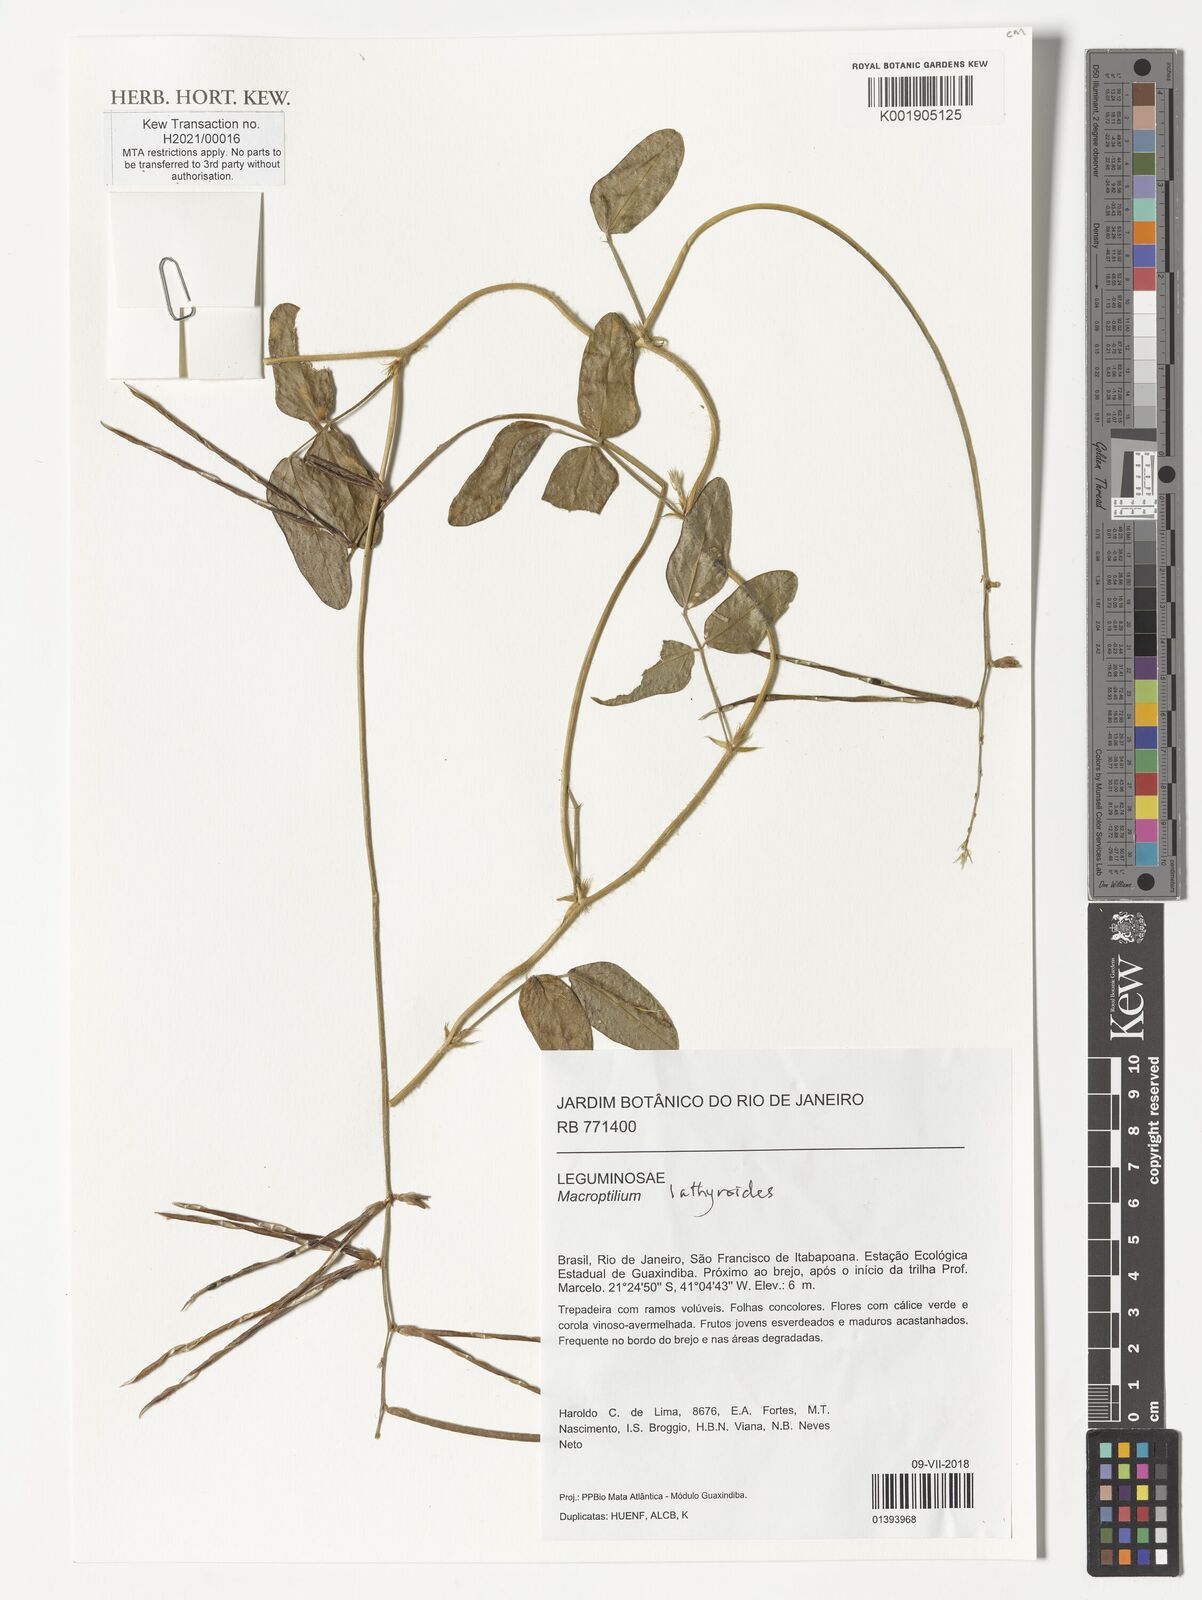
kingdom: Plantae
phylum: Tracheophyta
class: Magnoliopsida
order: Fabales
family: Fabaceae
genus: Macroptilium
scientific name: Macroptilium lathyroides
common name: Wild bushbean
